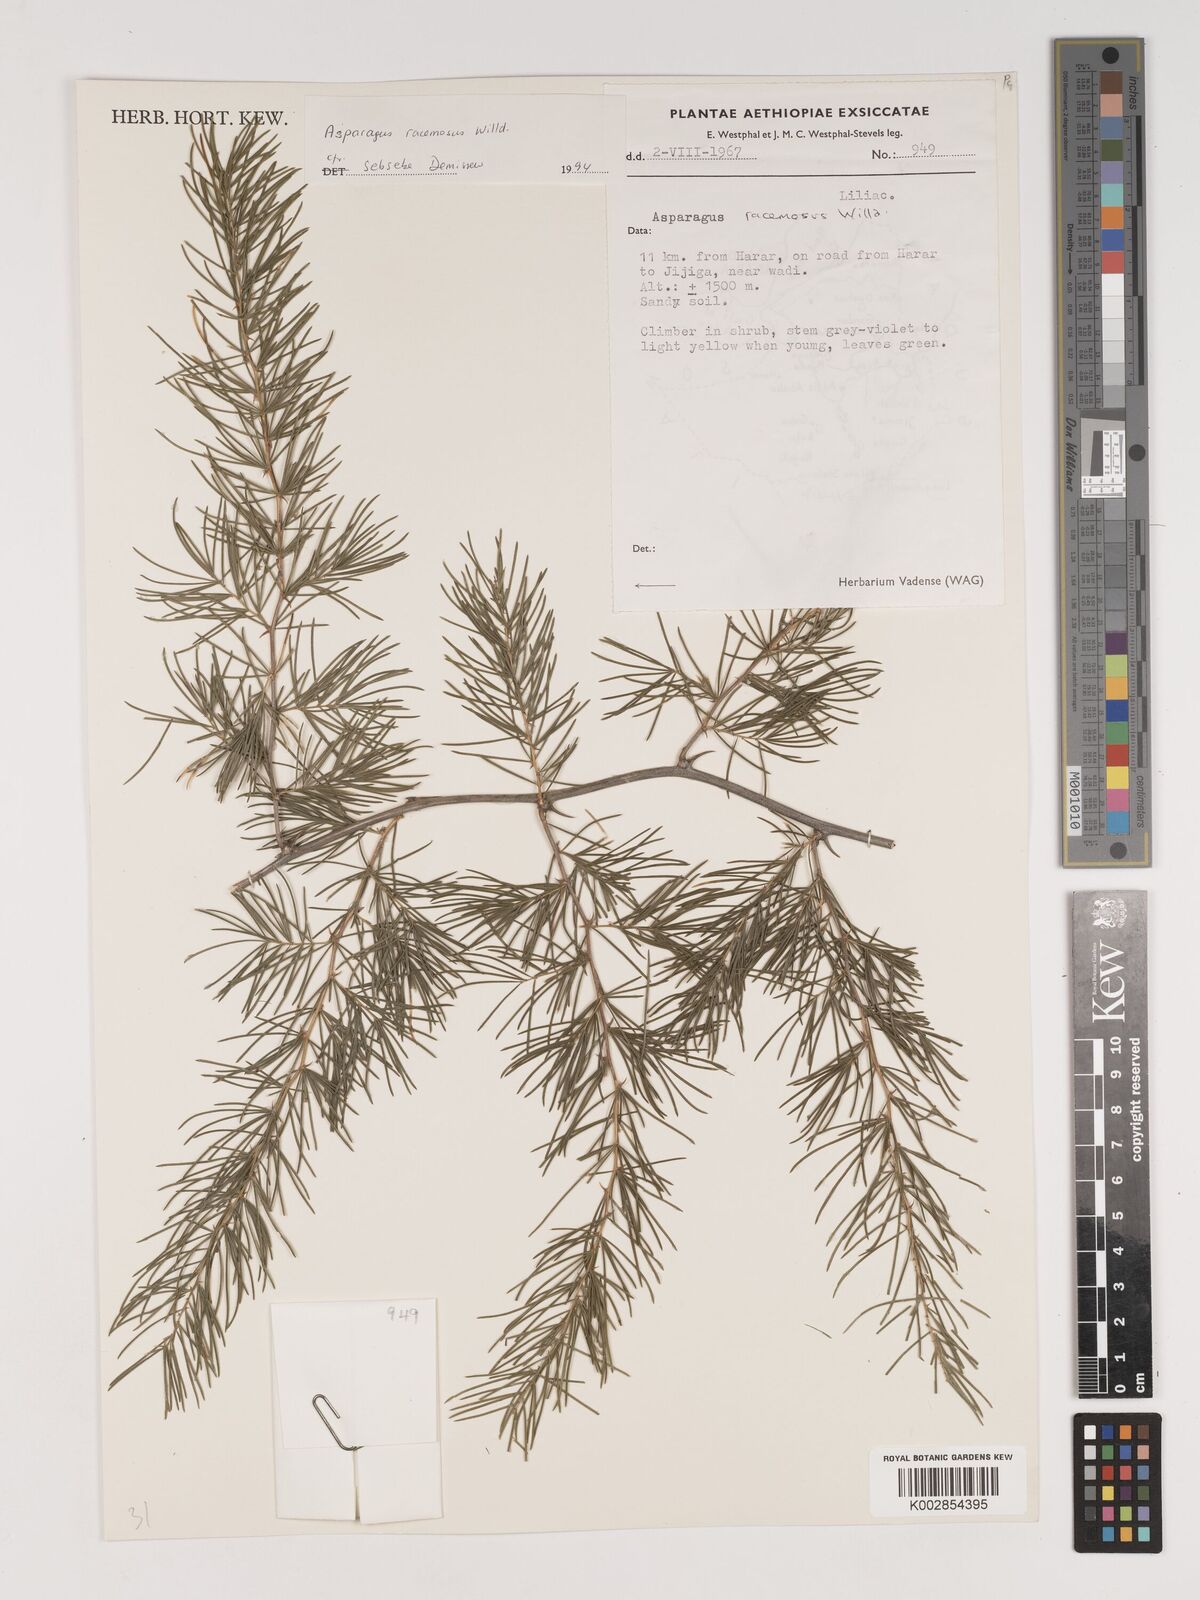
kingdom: Plantae
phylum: Tracheophyta
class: Liliopsida
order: Asparagales
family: Asparagaceae
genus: Asparagus
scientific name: Asparagus racemosus
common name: Asparagus-fern
